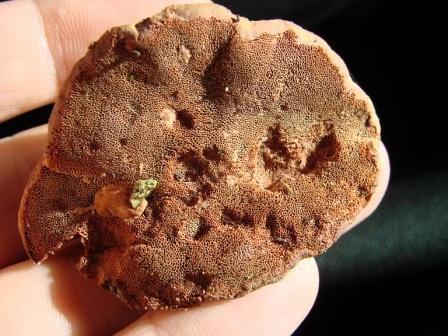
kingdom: Fungi
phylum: Basidiomycota
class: Agaricomycetes
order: Polyporales
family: Phanerochaetaceae
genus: Hapalopilus
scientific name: Hapalopilus rutilans
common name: rødlig okkerporesvamp
